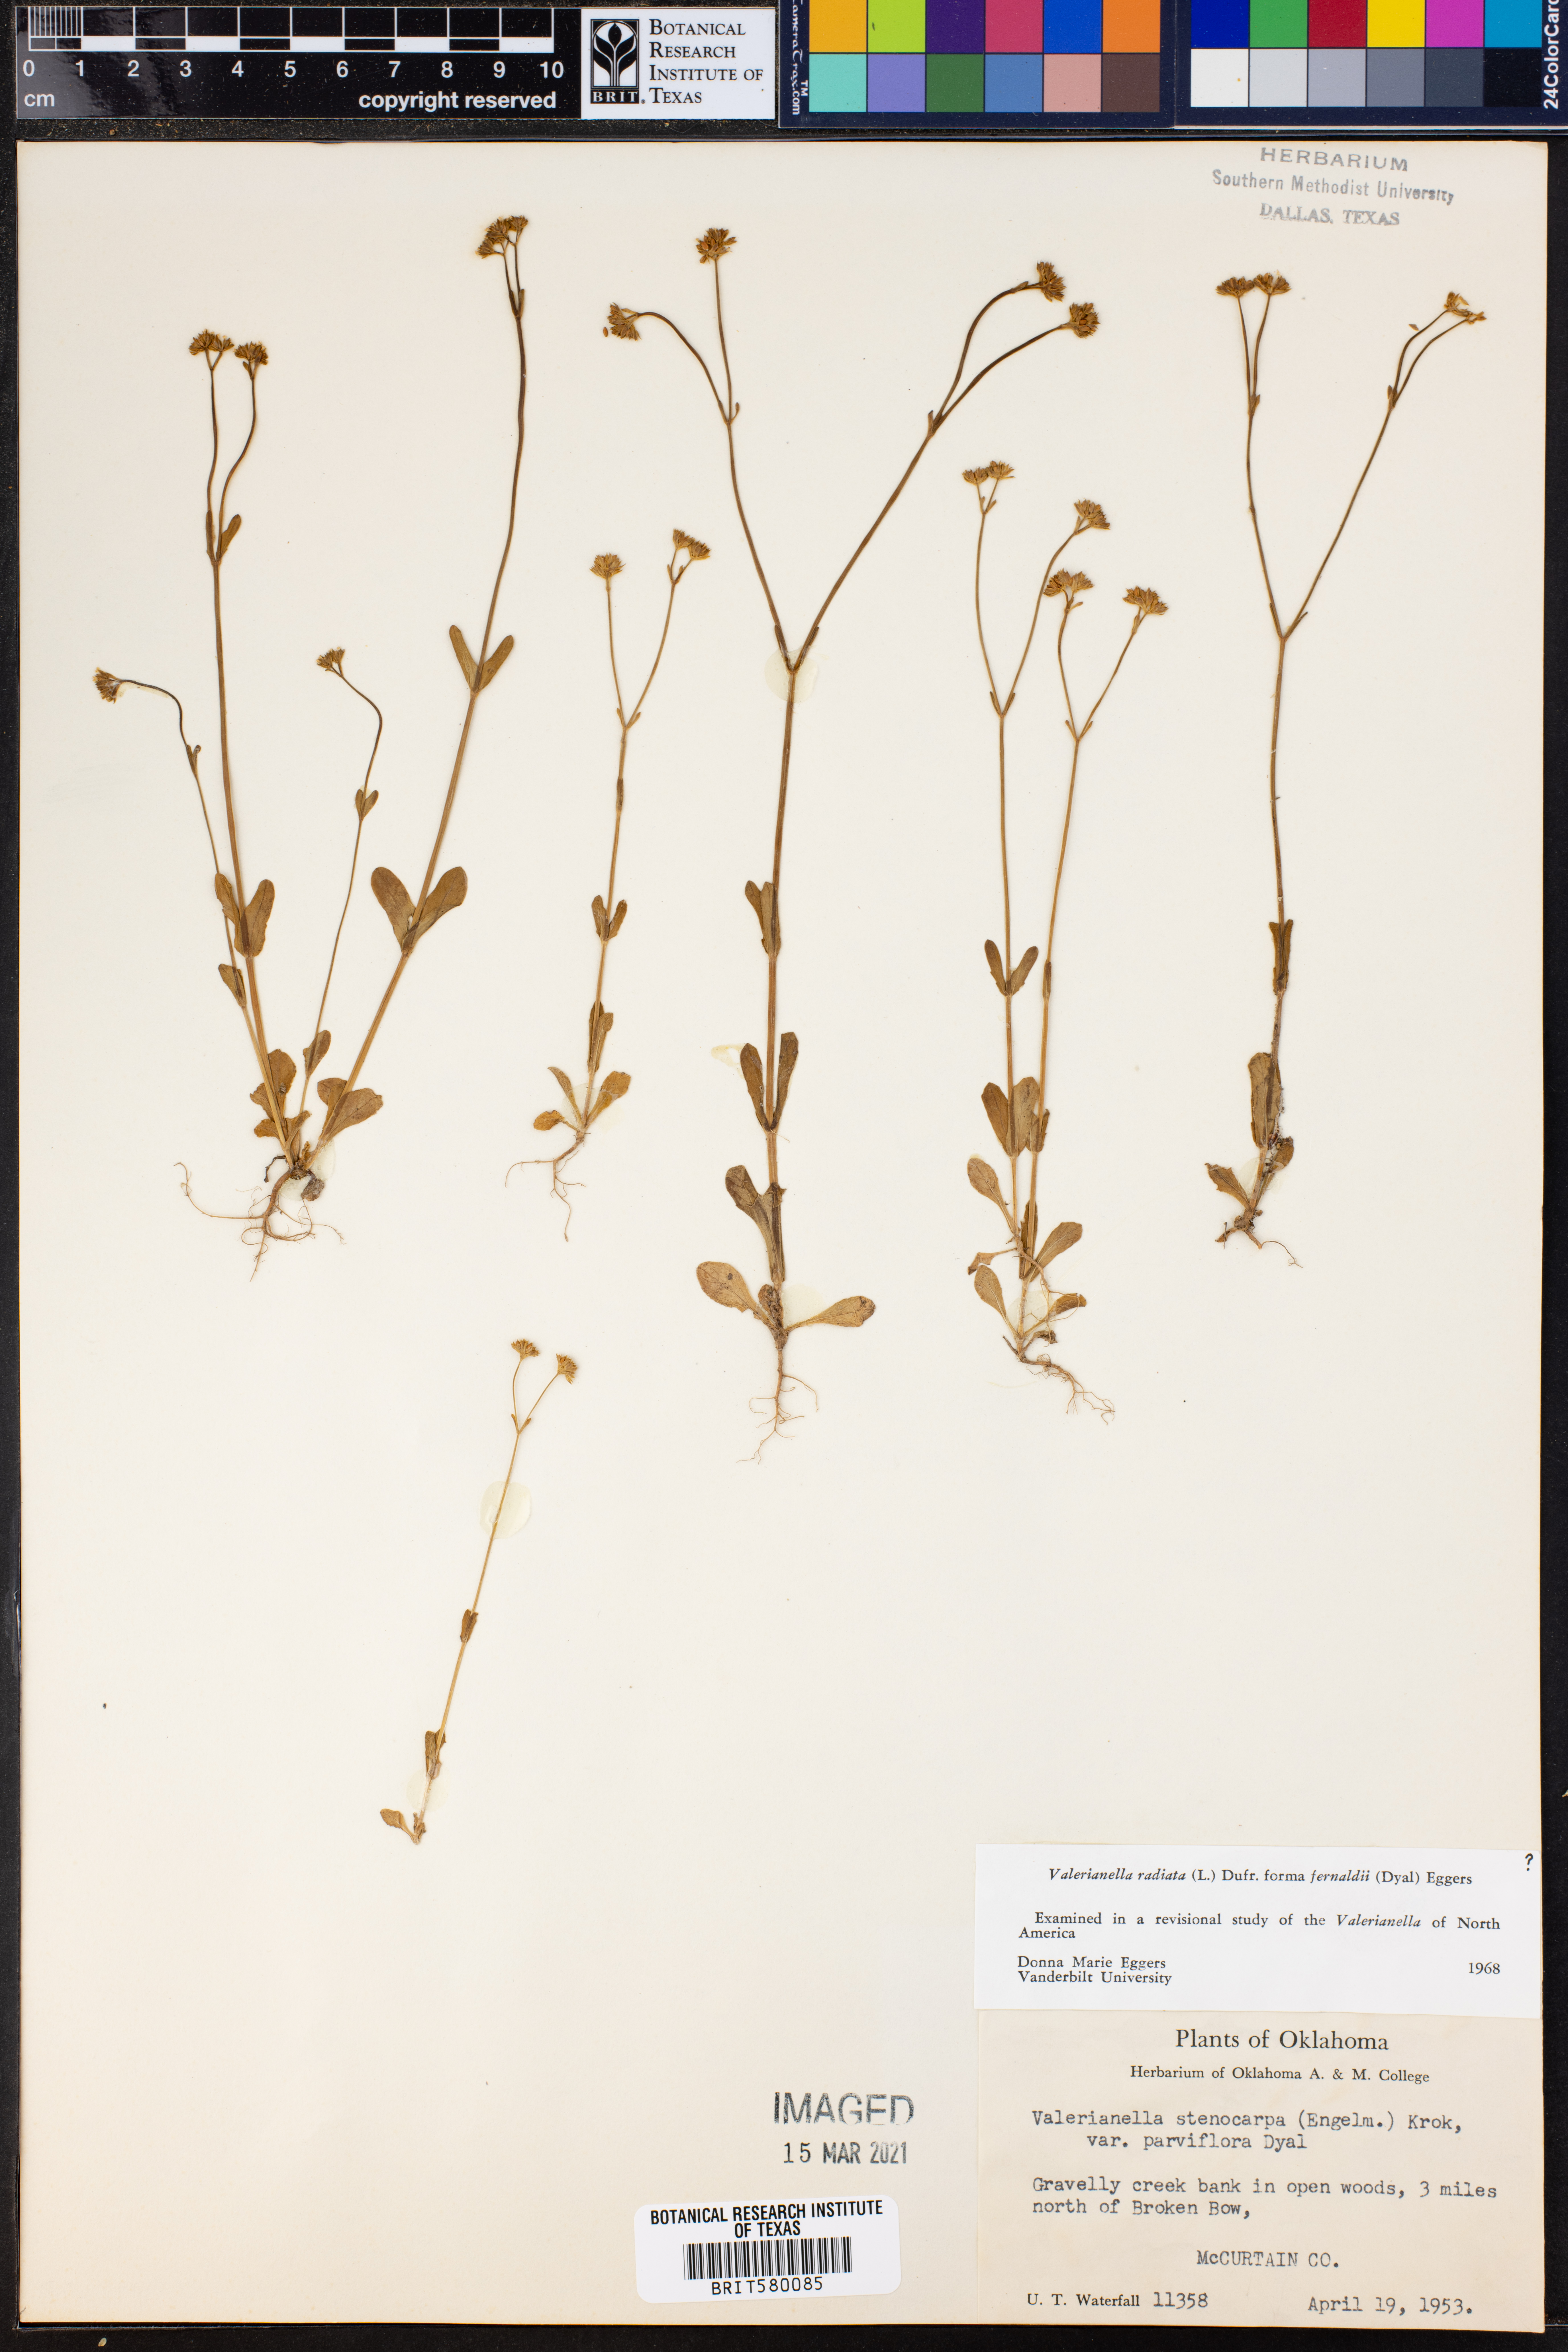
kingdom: Plantae
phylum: Tracheophyta
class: Magnoliopsida
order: Dipsacales
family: Caprifoliaceae
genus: Valerianella
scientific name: Valerianella radiata
